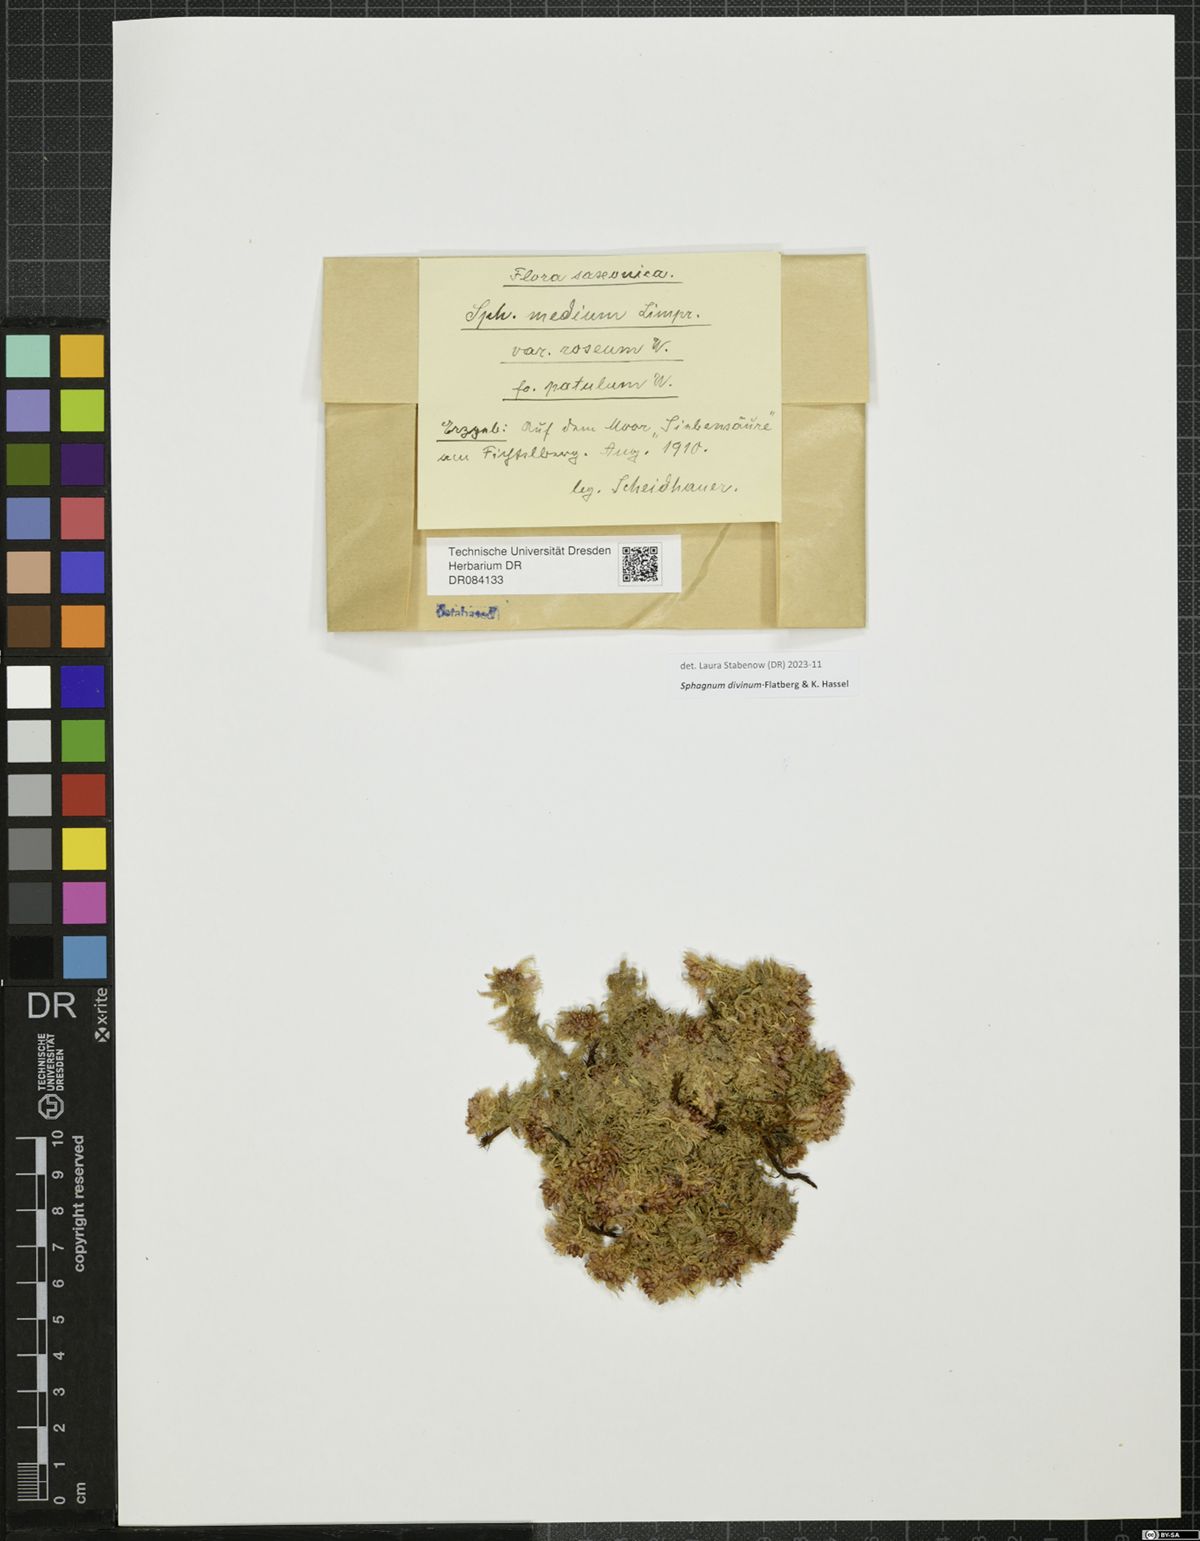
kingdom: Plantae
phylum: Bryophyta
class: Sphagnopsida
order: Sphagnales
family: Sphagnaceae
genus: Sphagnum
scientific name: Sphagnum divinum
